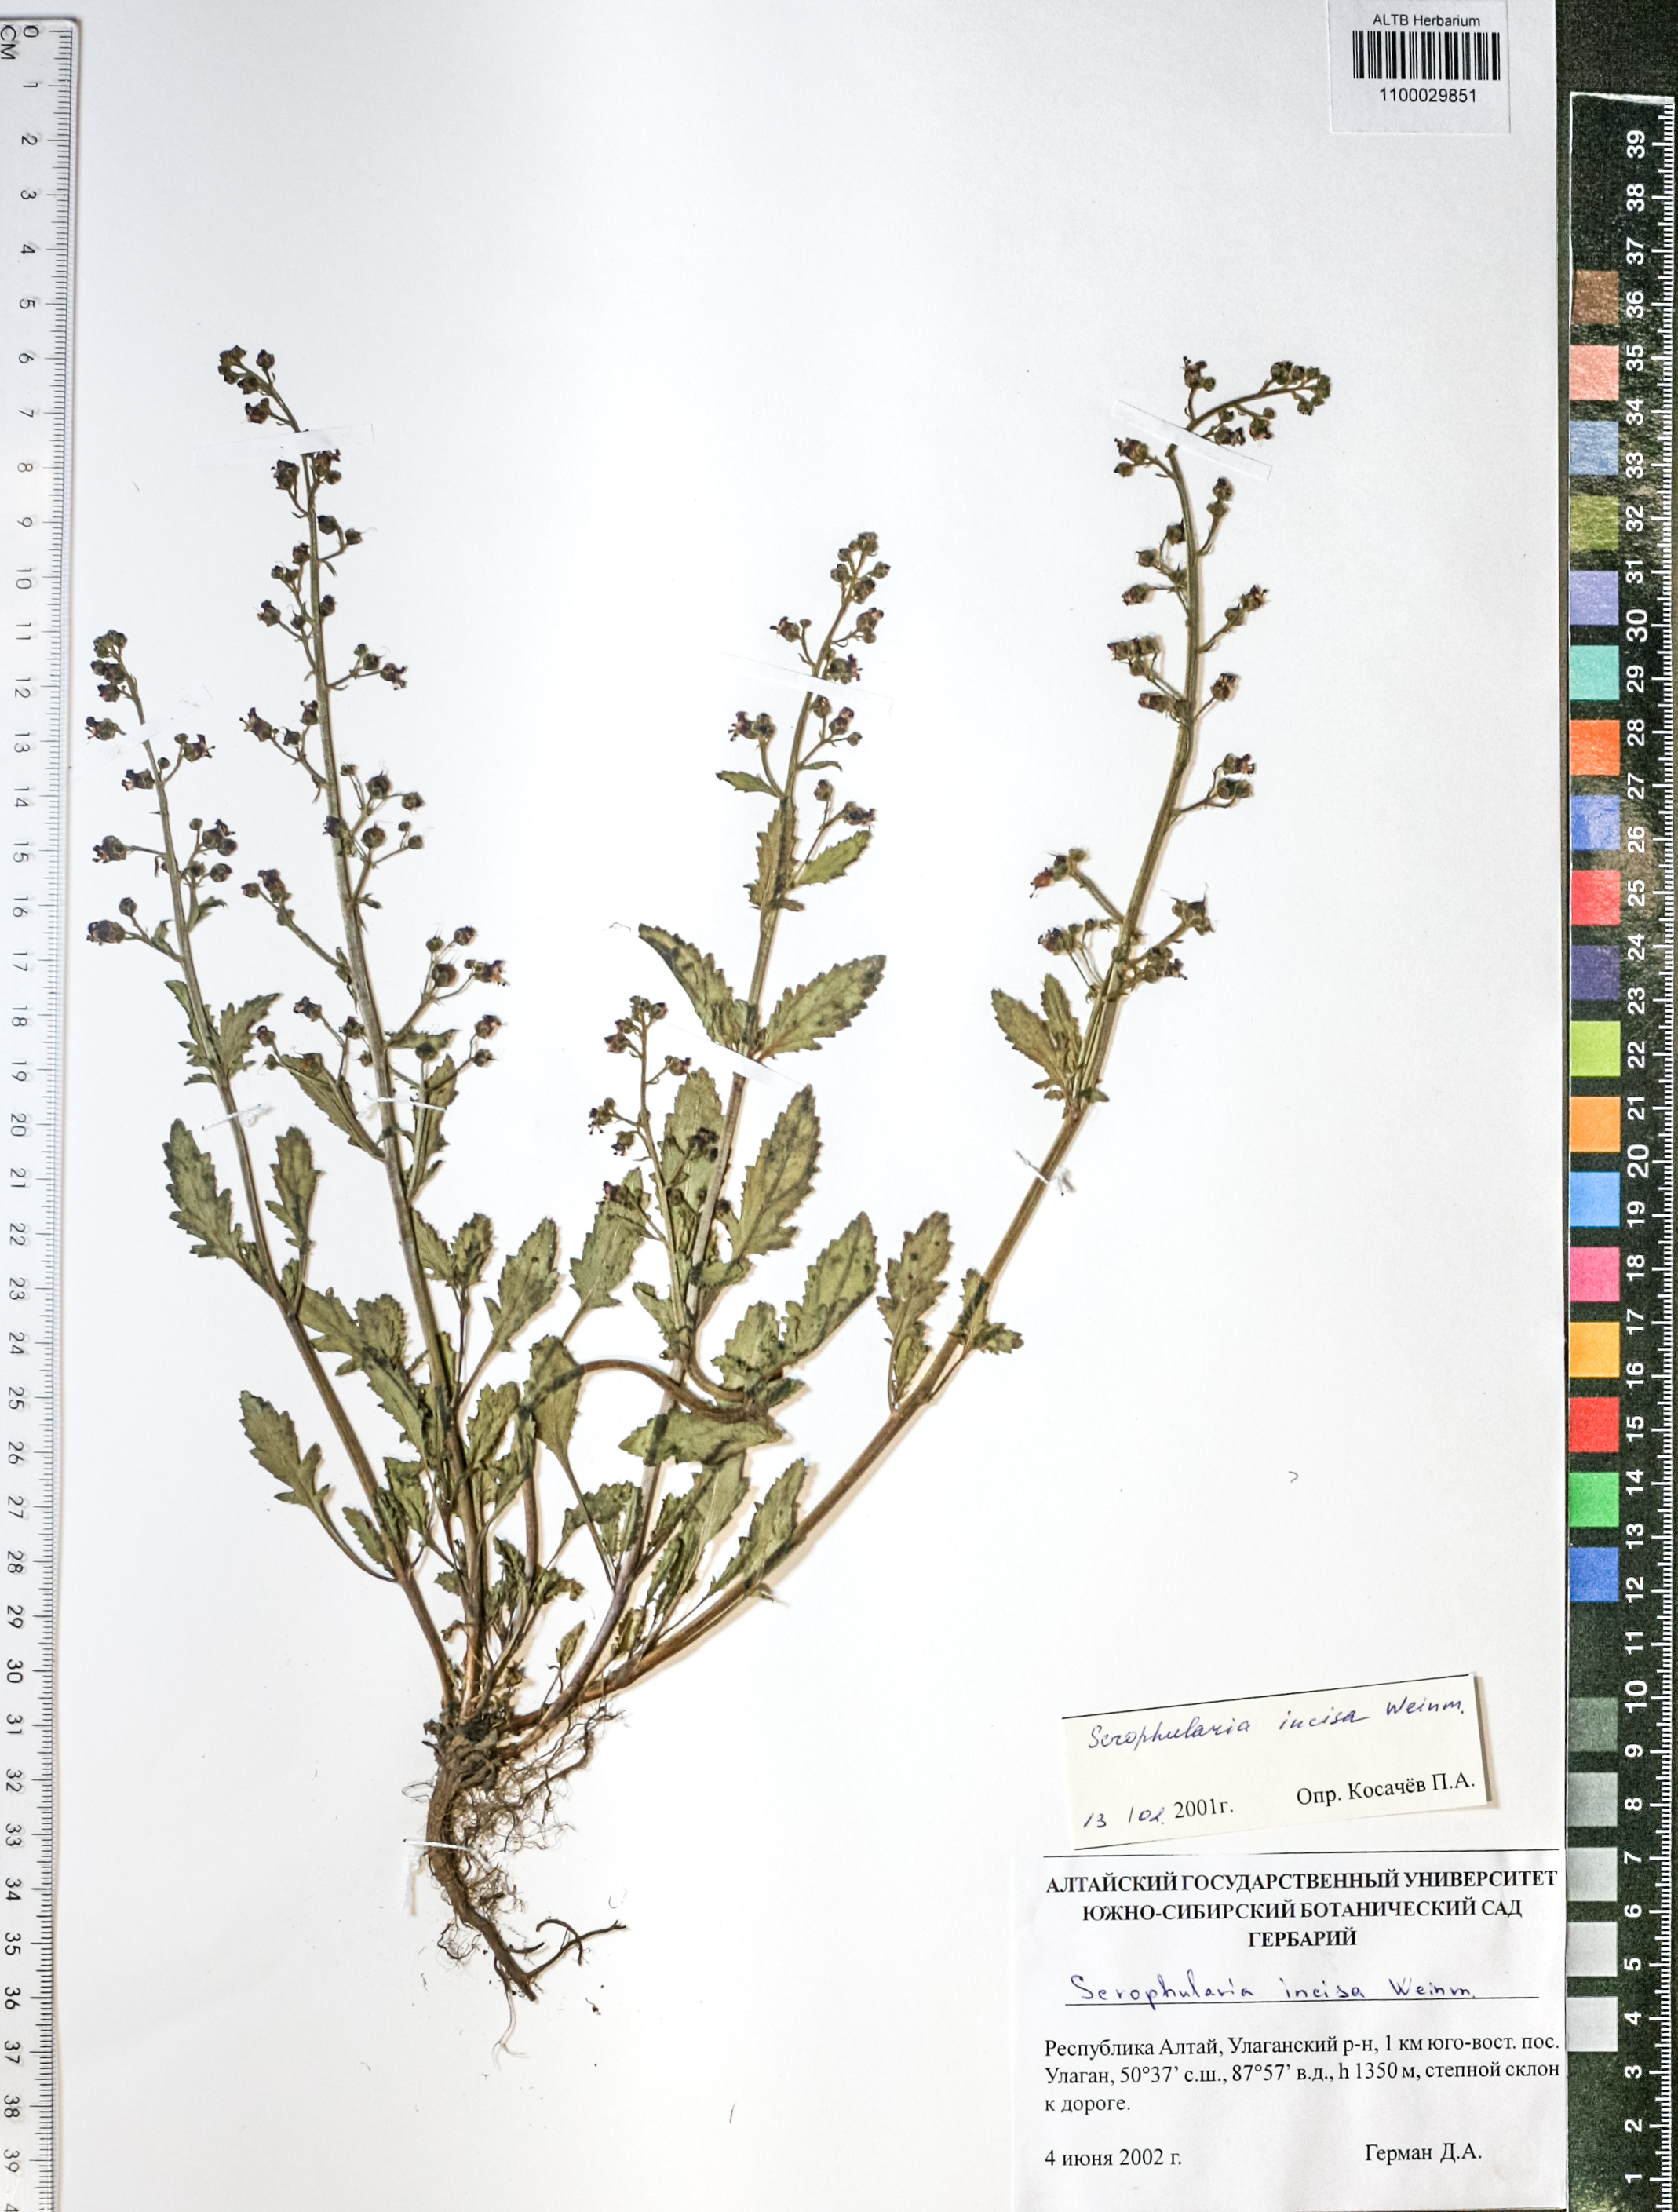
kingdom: Plantae
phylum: Tracheophyta
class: Magnoliopsida
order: Lamiales
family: Scrophulariaceae
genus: Scrophularia
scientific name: Scrophularia incisa
